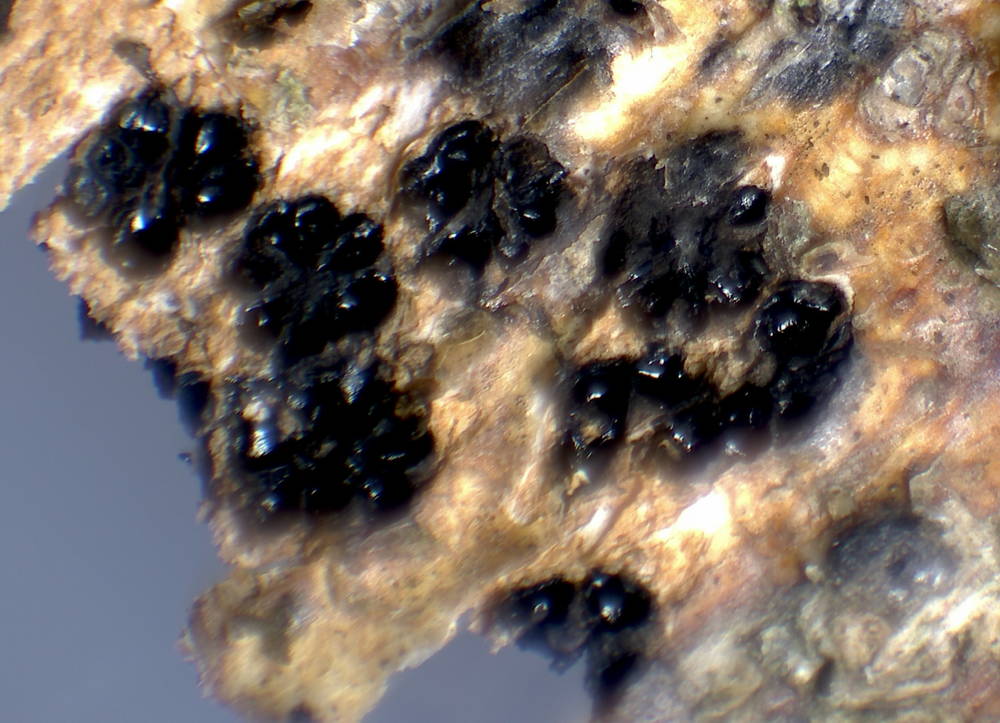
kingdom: Fungi
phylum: Ascomycota
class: Sordariomycetes
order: Xylariales
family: Diatrypaceae
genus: Eutypella
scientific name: Eutypella quaternata
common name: bøge-korsprik
